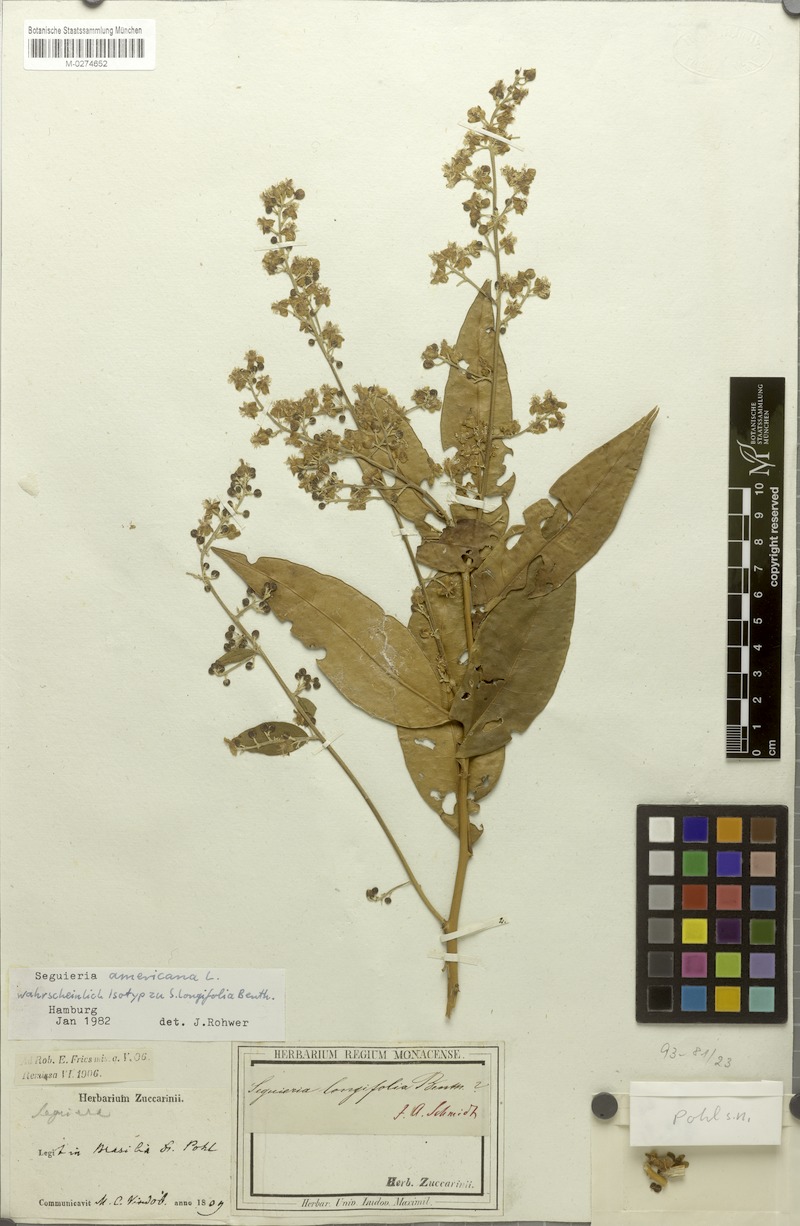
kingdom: Plantae
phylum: Tracheophyta
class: Magnoliopsida
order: Caryophyllales
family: Phytolaccaceae
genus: Seguieria
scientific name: Seguieria americana
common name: American seguieria
